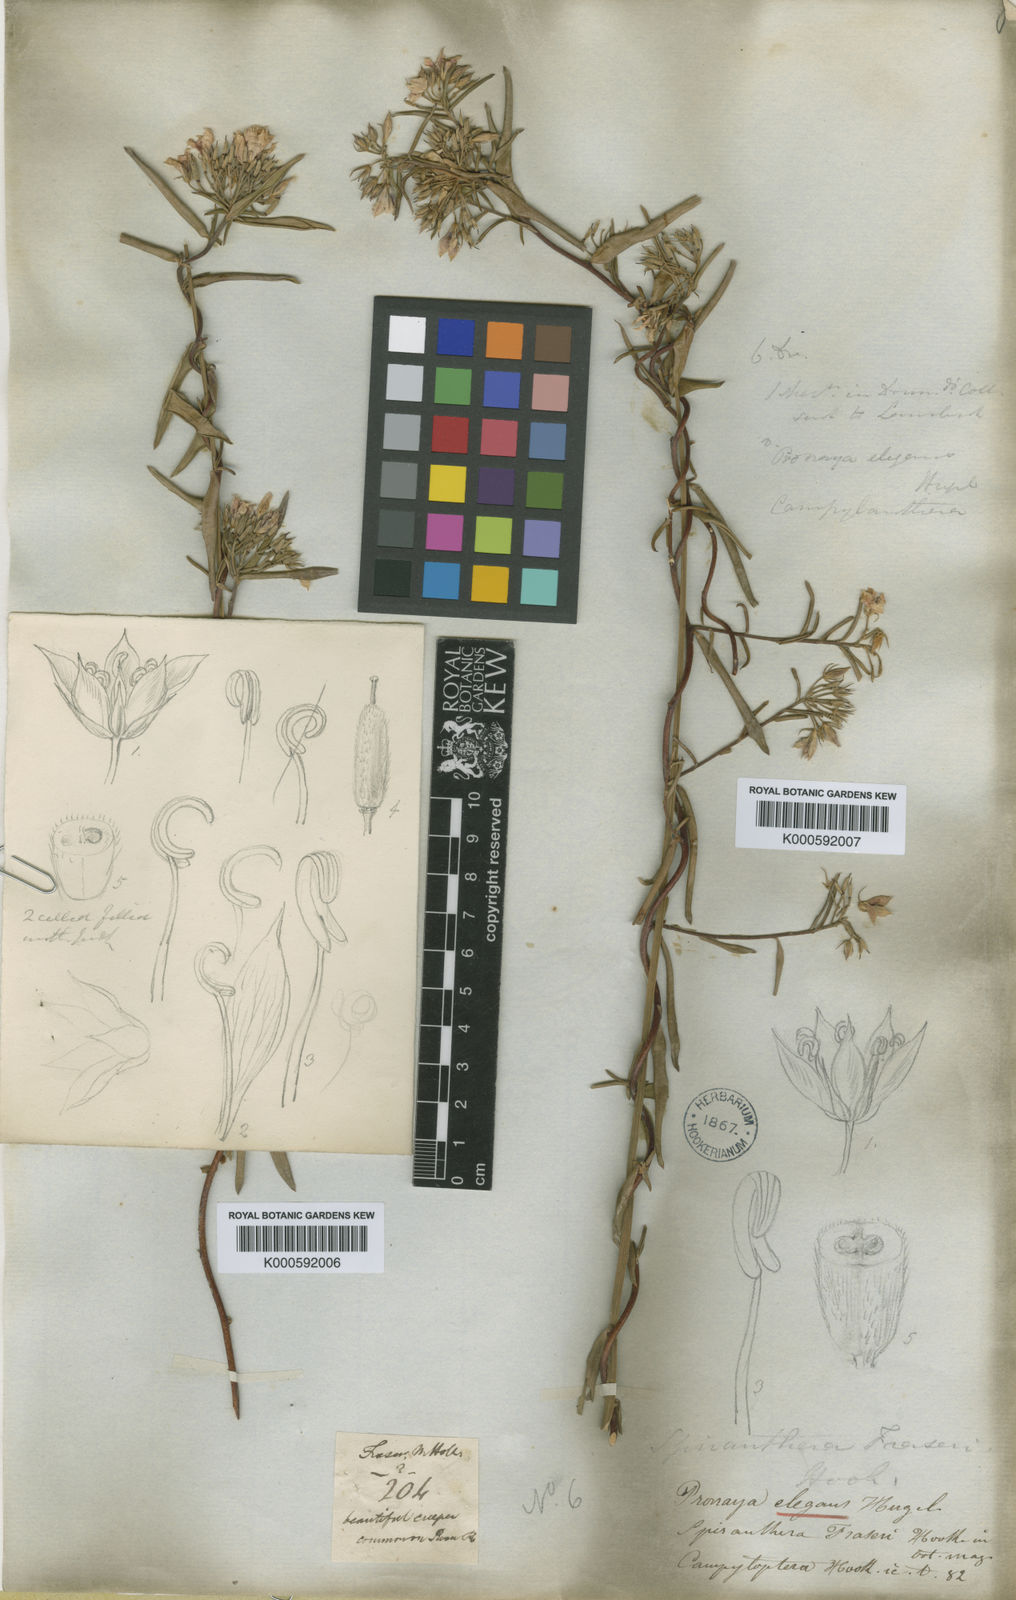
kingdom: Plantae
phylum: Tracheophyta
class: Magnoliopsida
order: Apiales
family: Pittosporaceae
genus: Billardiera
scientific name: Billardiera fraseri
